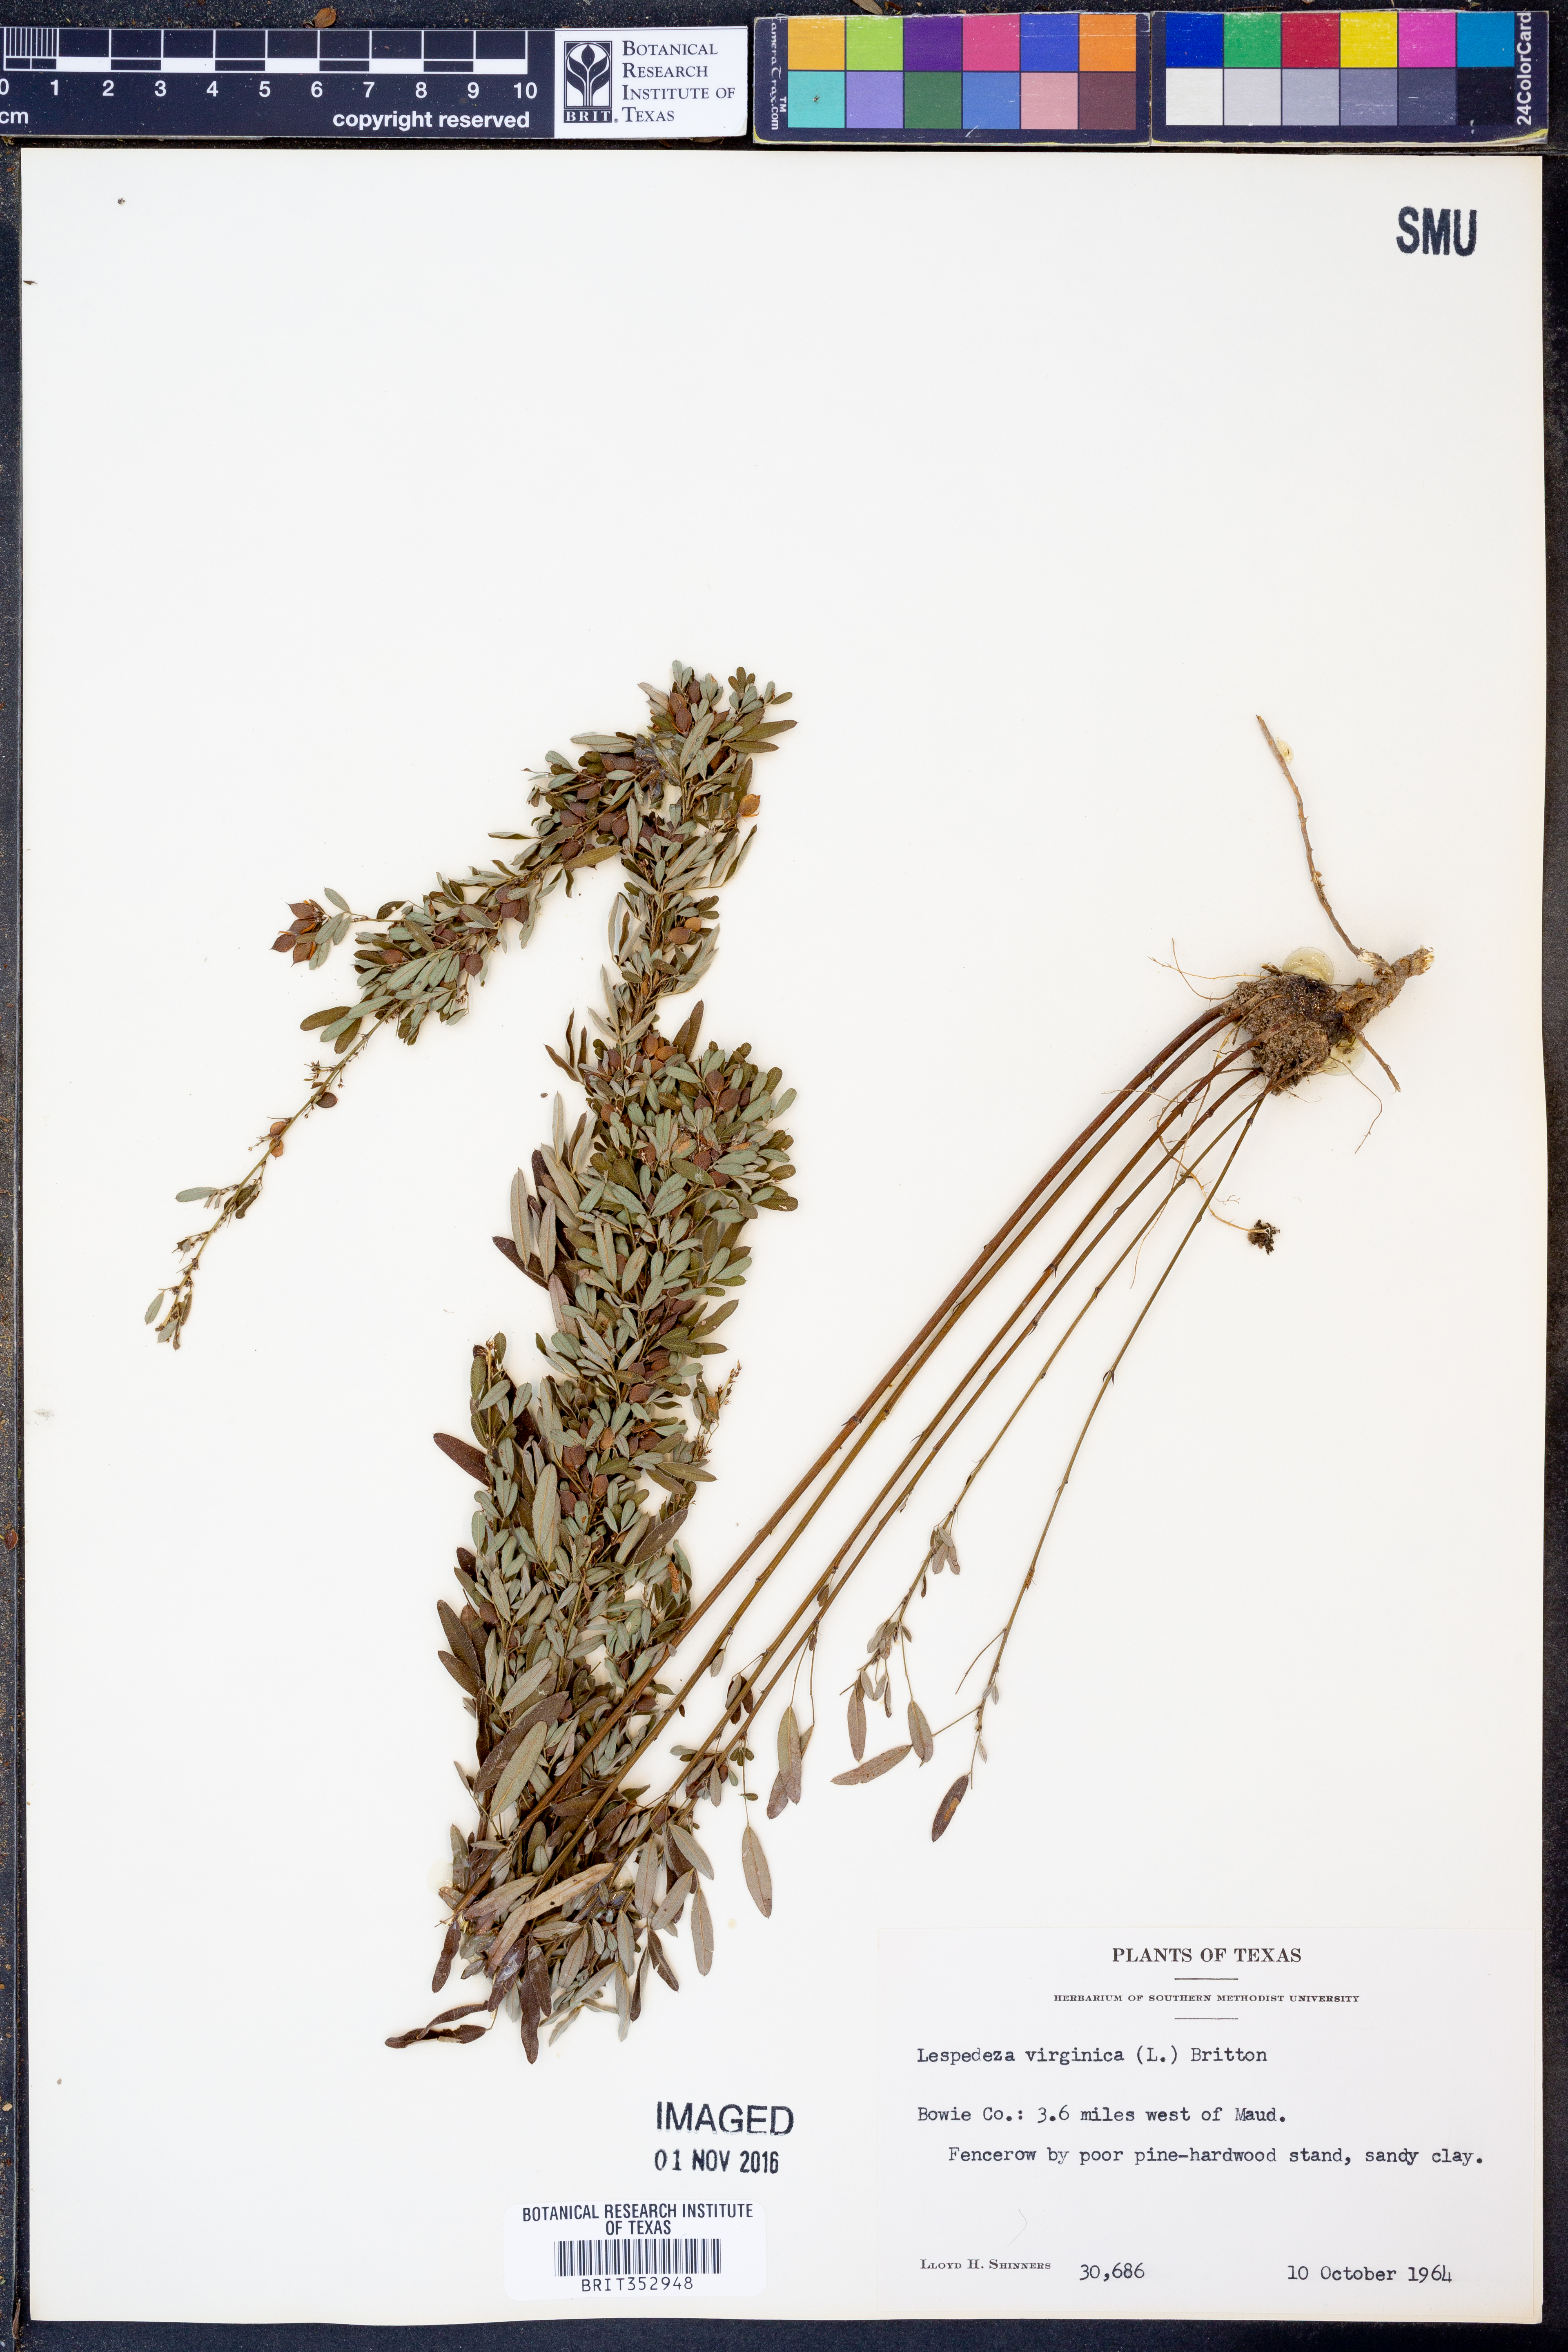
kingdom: Plantae
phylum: Tracheophyta
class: Magnoliopsida
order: Fabales
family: Fabaceae
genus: Lespedeza
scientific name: Lespedeza virginica
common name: Slender bush-clover
